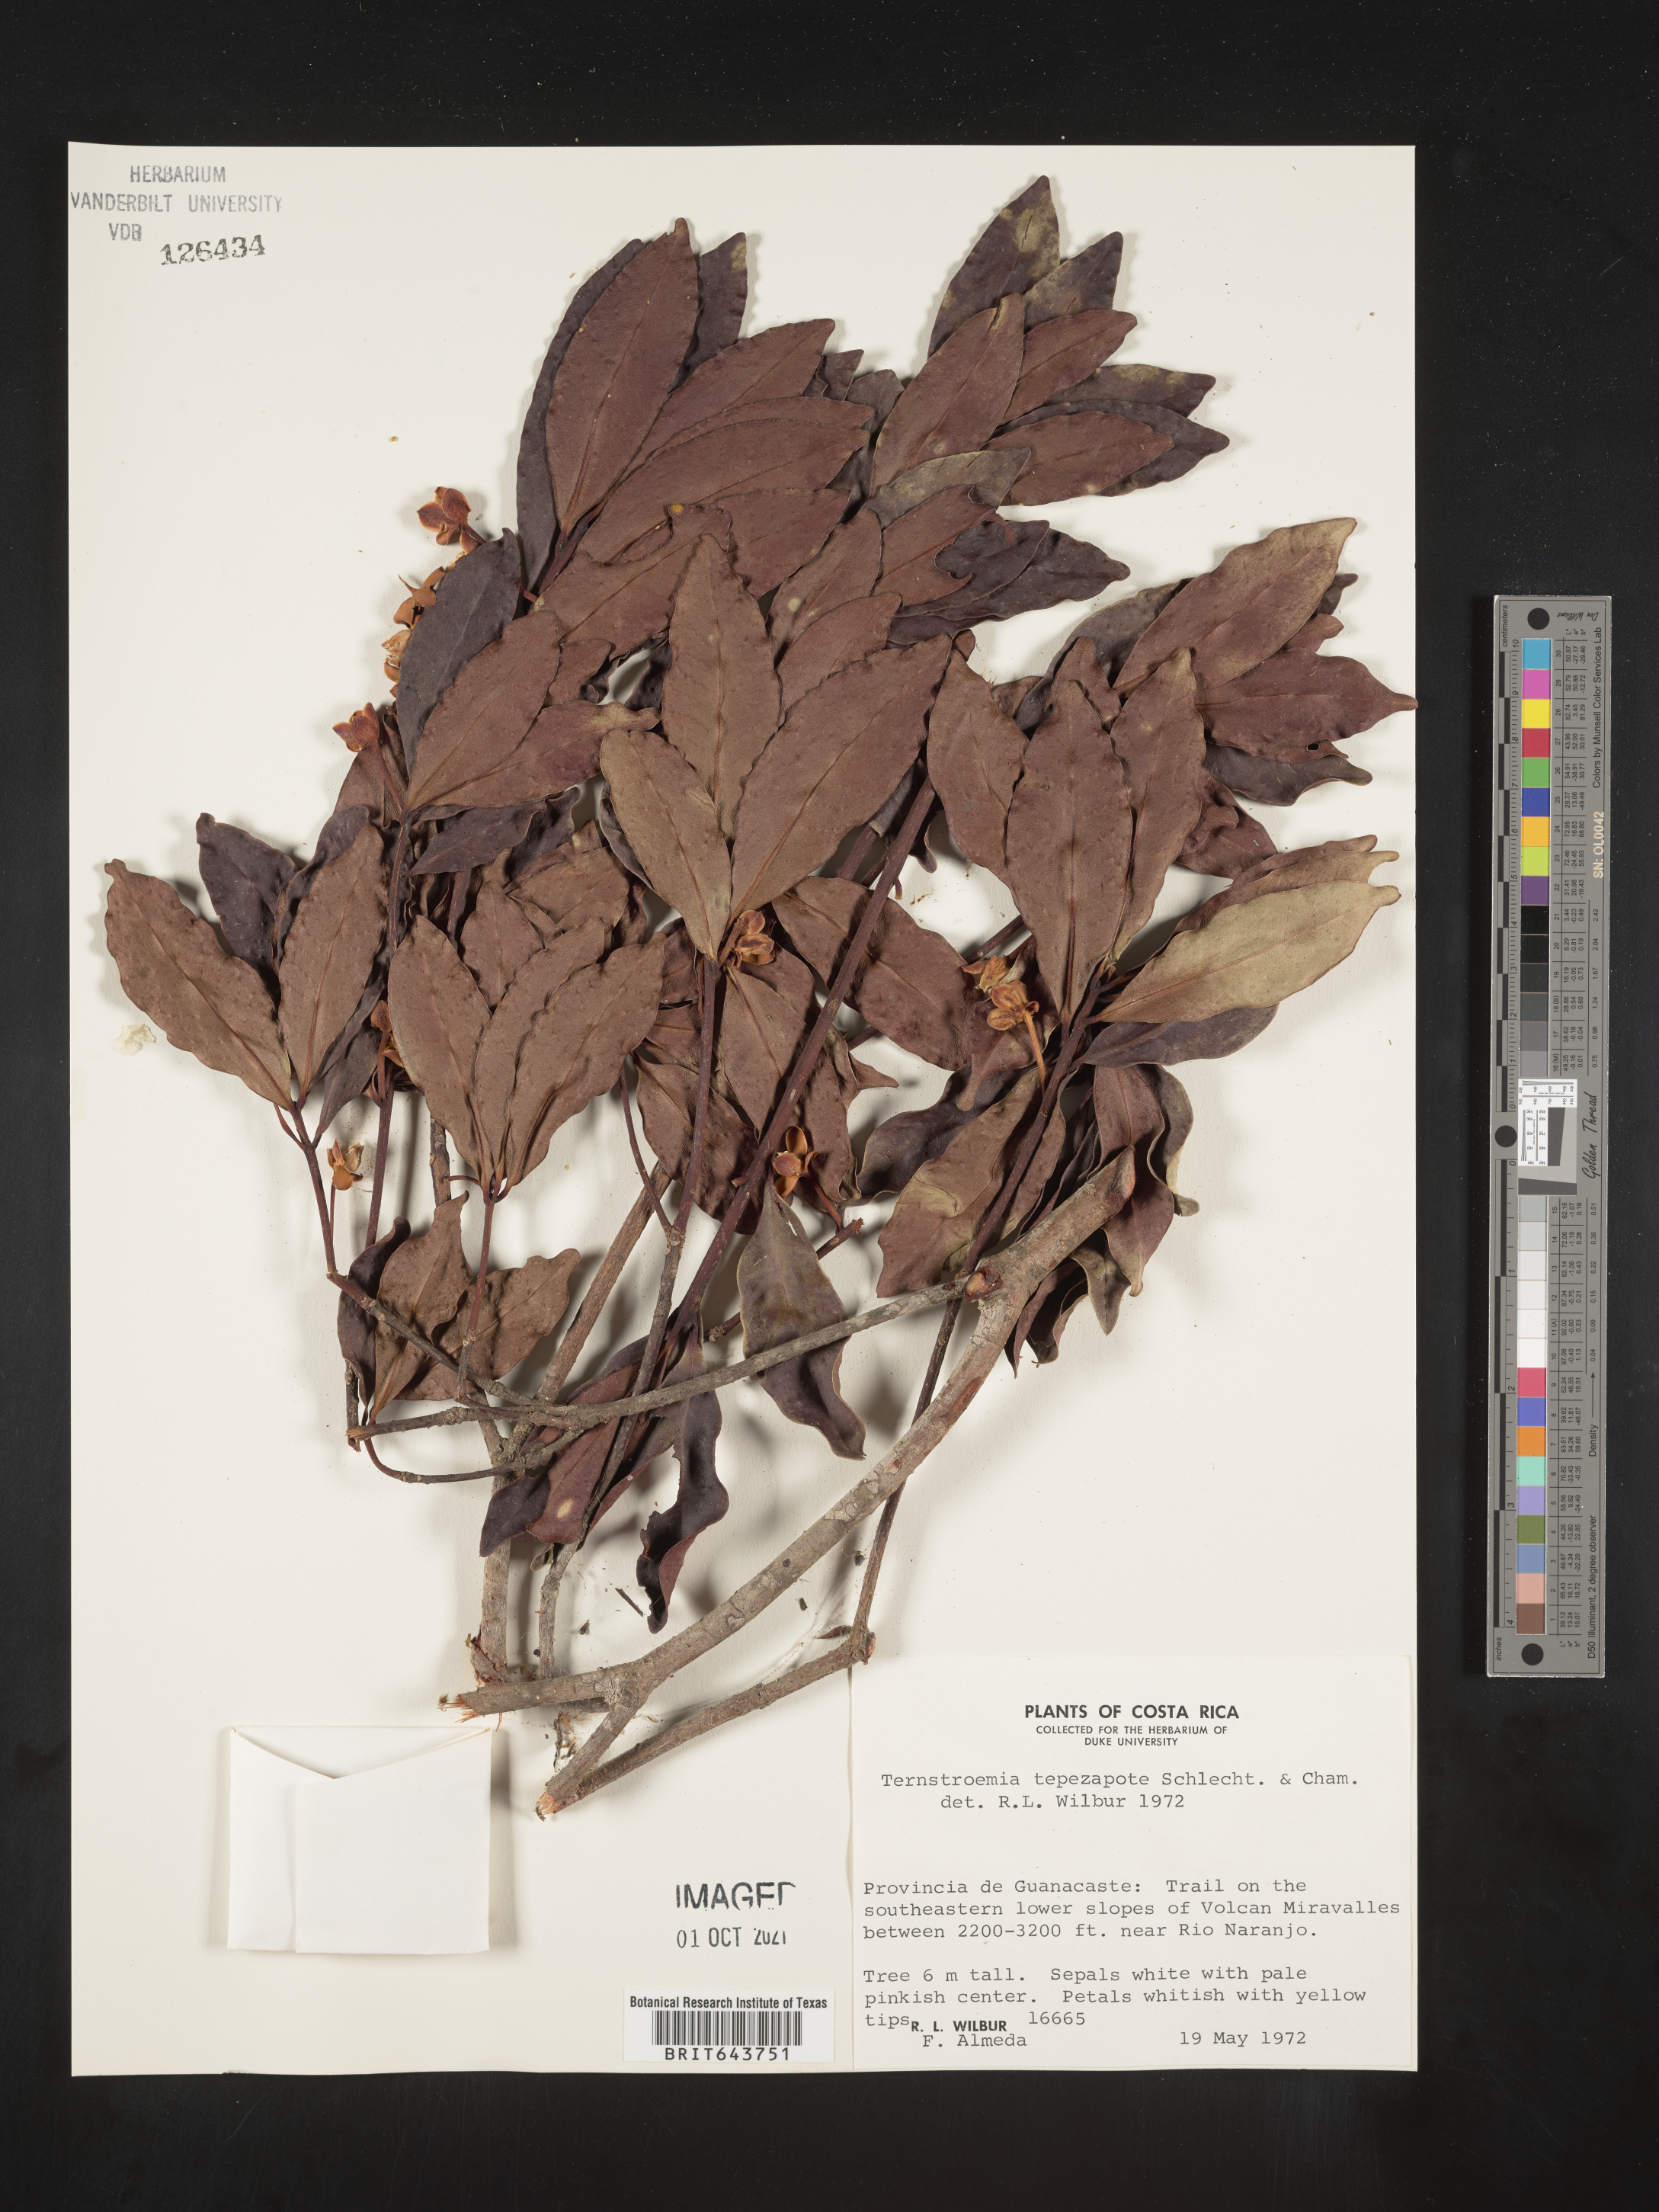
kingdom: Plantae
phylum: Tracheophyta
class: Magnoliopsida
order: Ericales
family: Pentaphylacaceae
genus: Ternstroemia
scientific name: Ternstroemia
